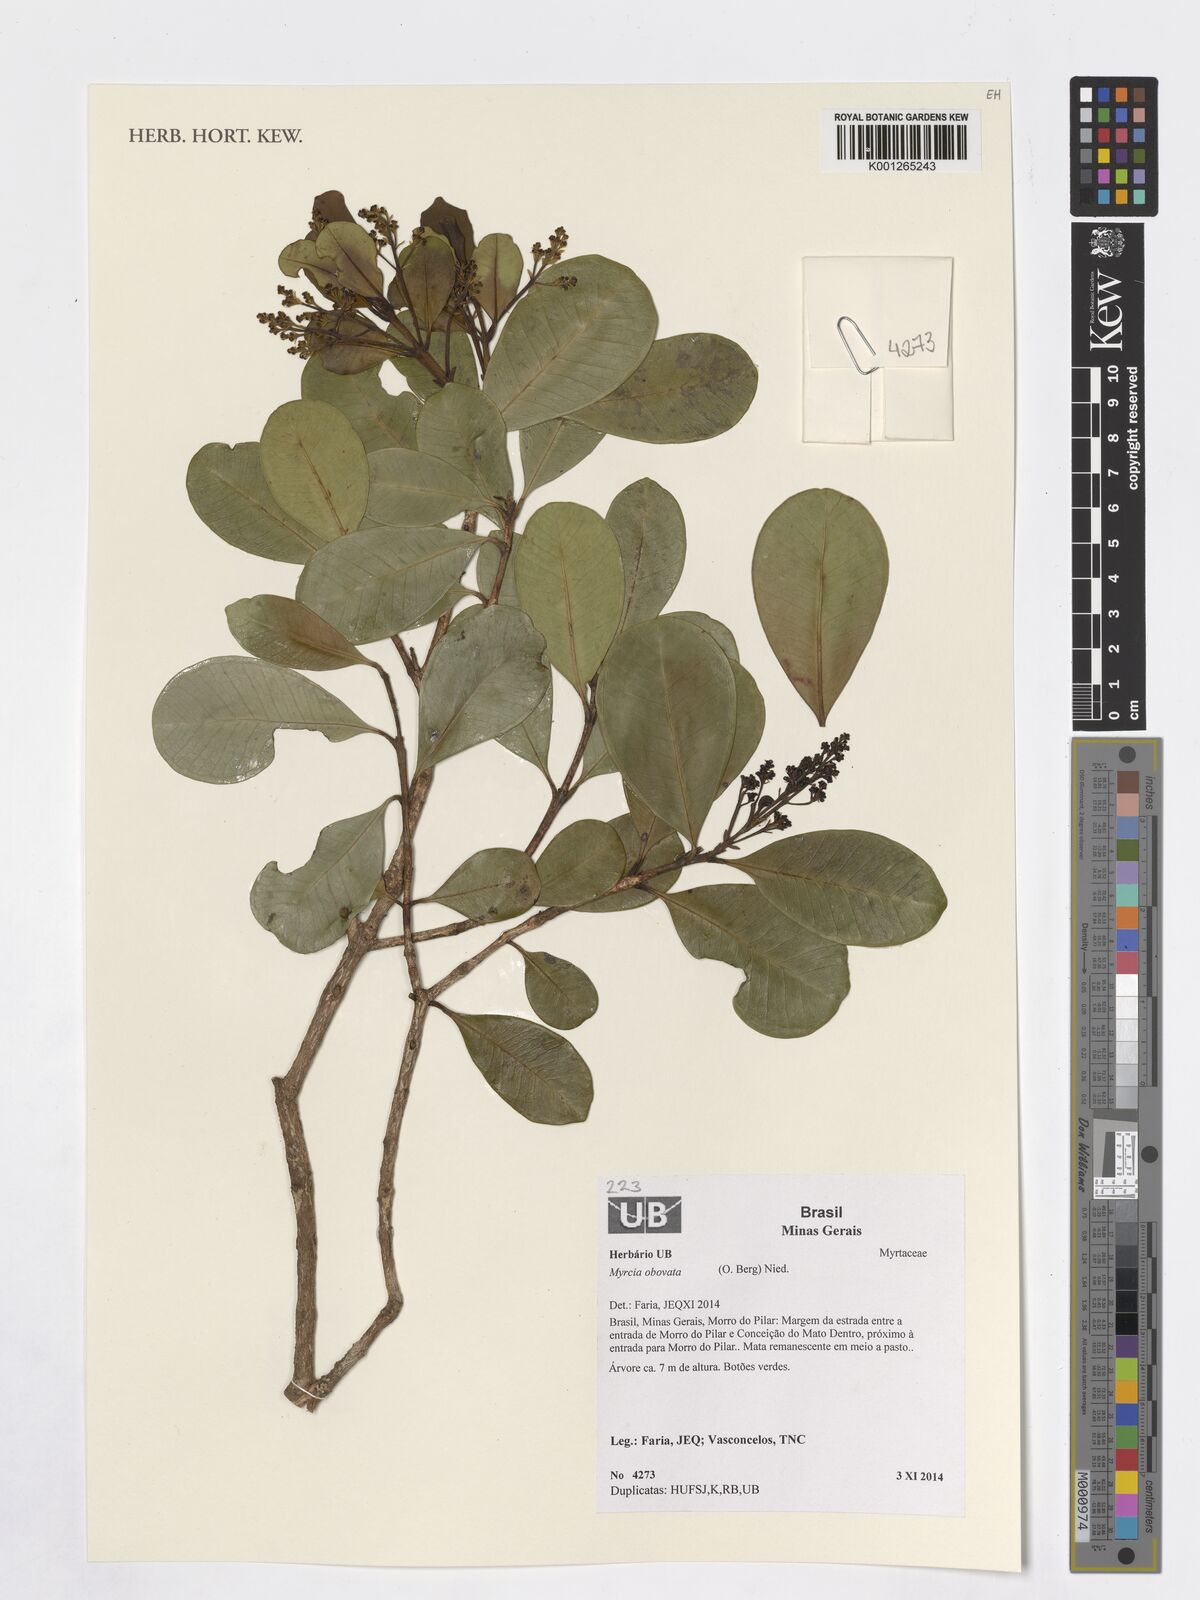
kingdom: Plantae
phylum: Tracheophyta
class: Magnoliopsida
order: Myrtales
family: Myrtaceae
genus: Myrcia
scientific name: Myrcia obovata
